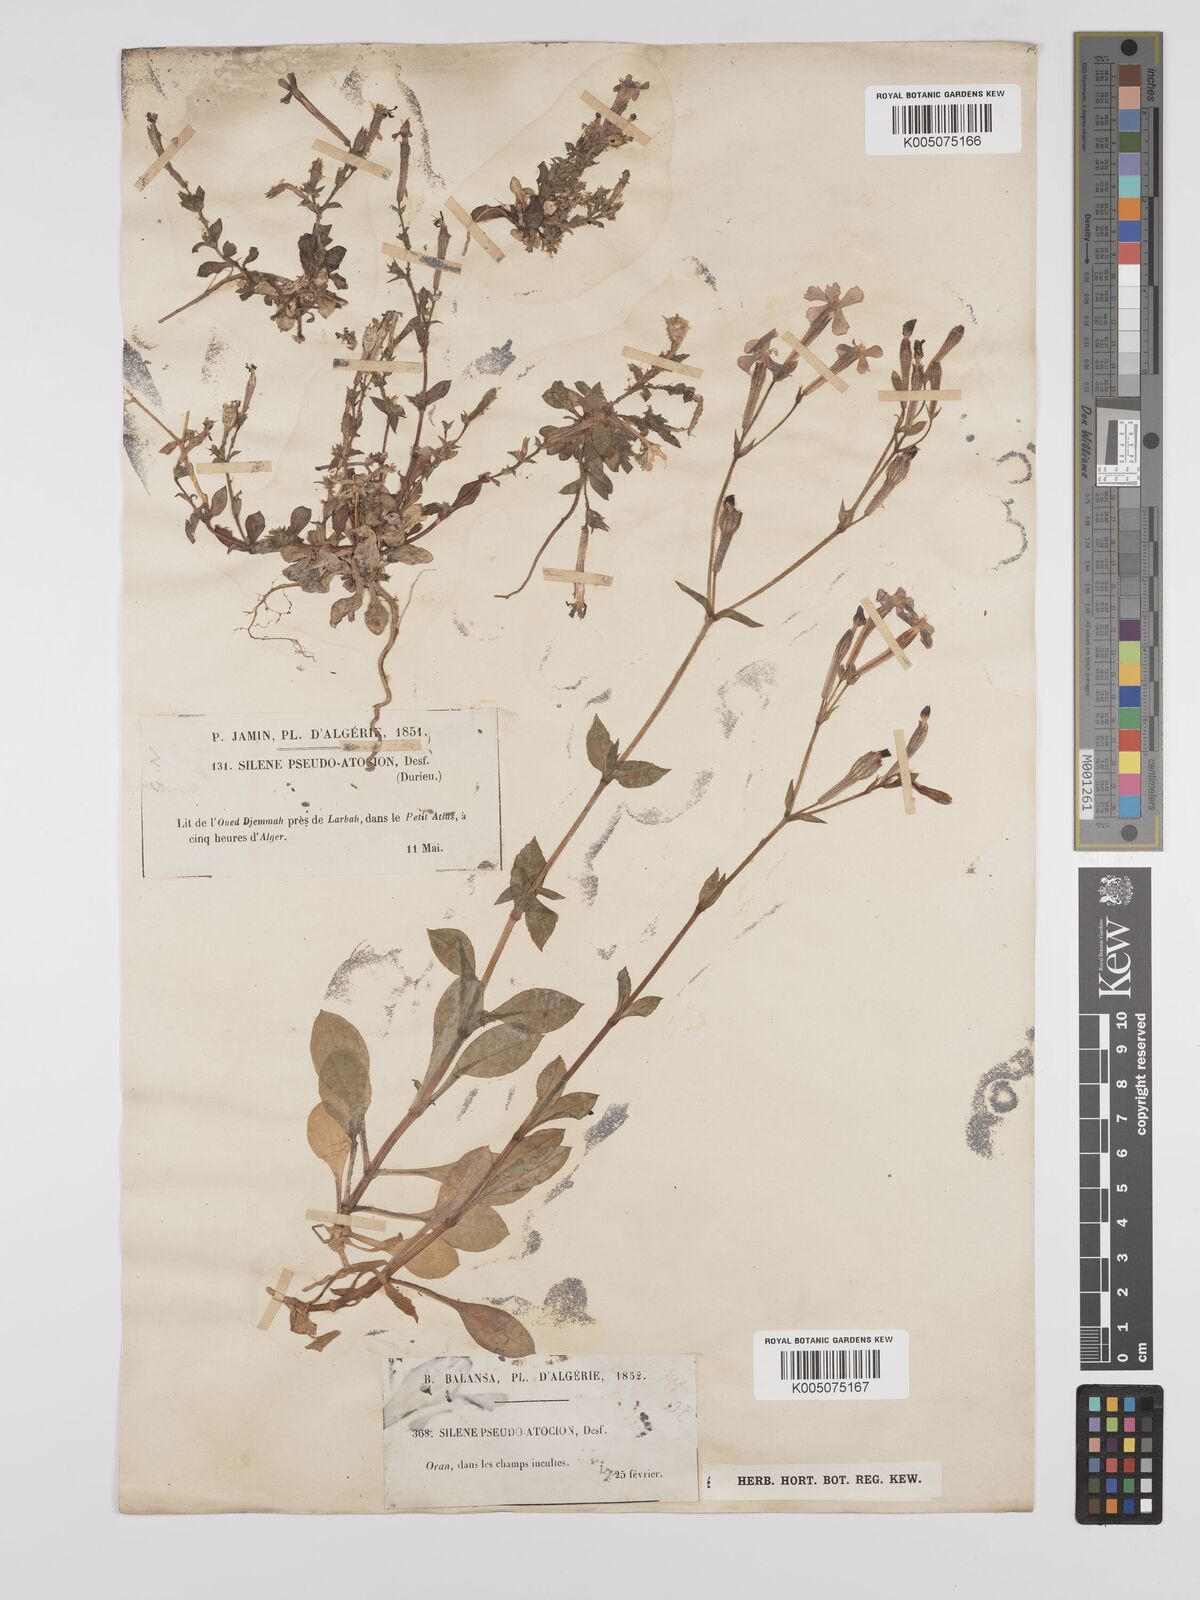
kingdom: Plantae
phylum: Tracheophyta
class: Magnoliopsida
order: Caryophyllales
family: Caryophyllaceae
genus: Silene
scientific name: Silene pseudoatocion
